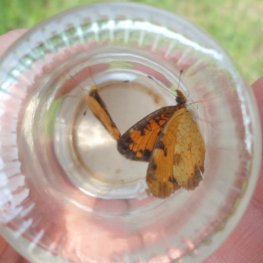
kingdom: Animalia
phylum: Arthropoda
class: Insecta
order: Lepidoptera
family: Nymphalidae
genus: Phyciodes
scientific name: Phyciodes tharos
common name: Northern Crescent
